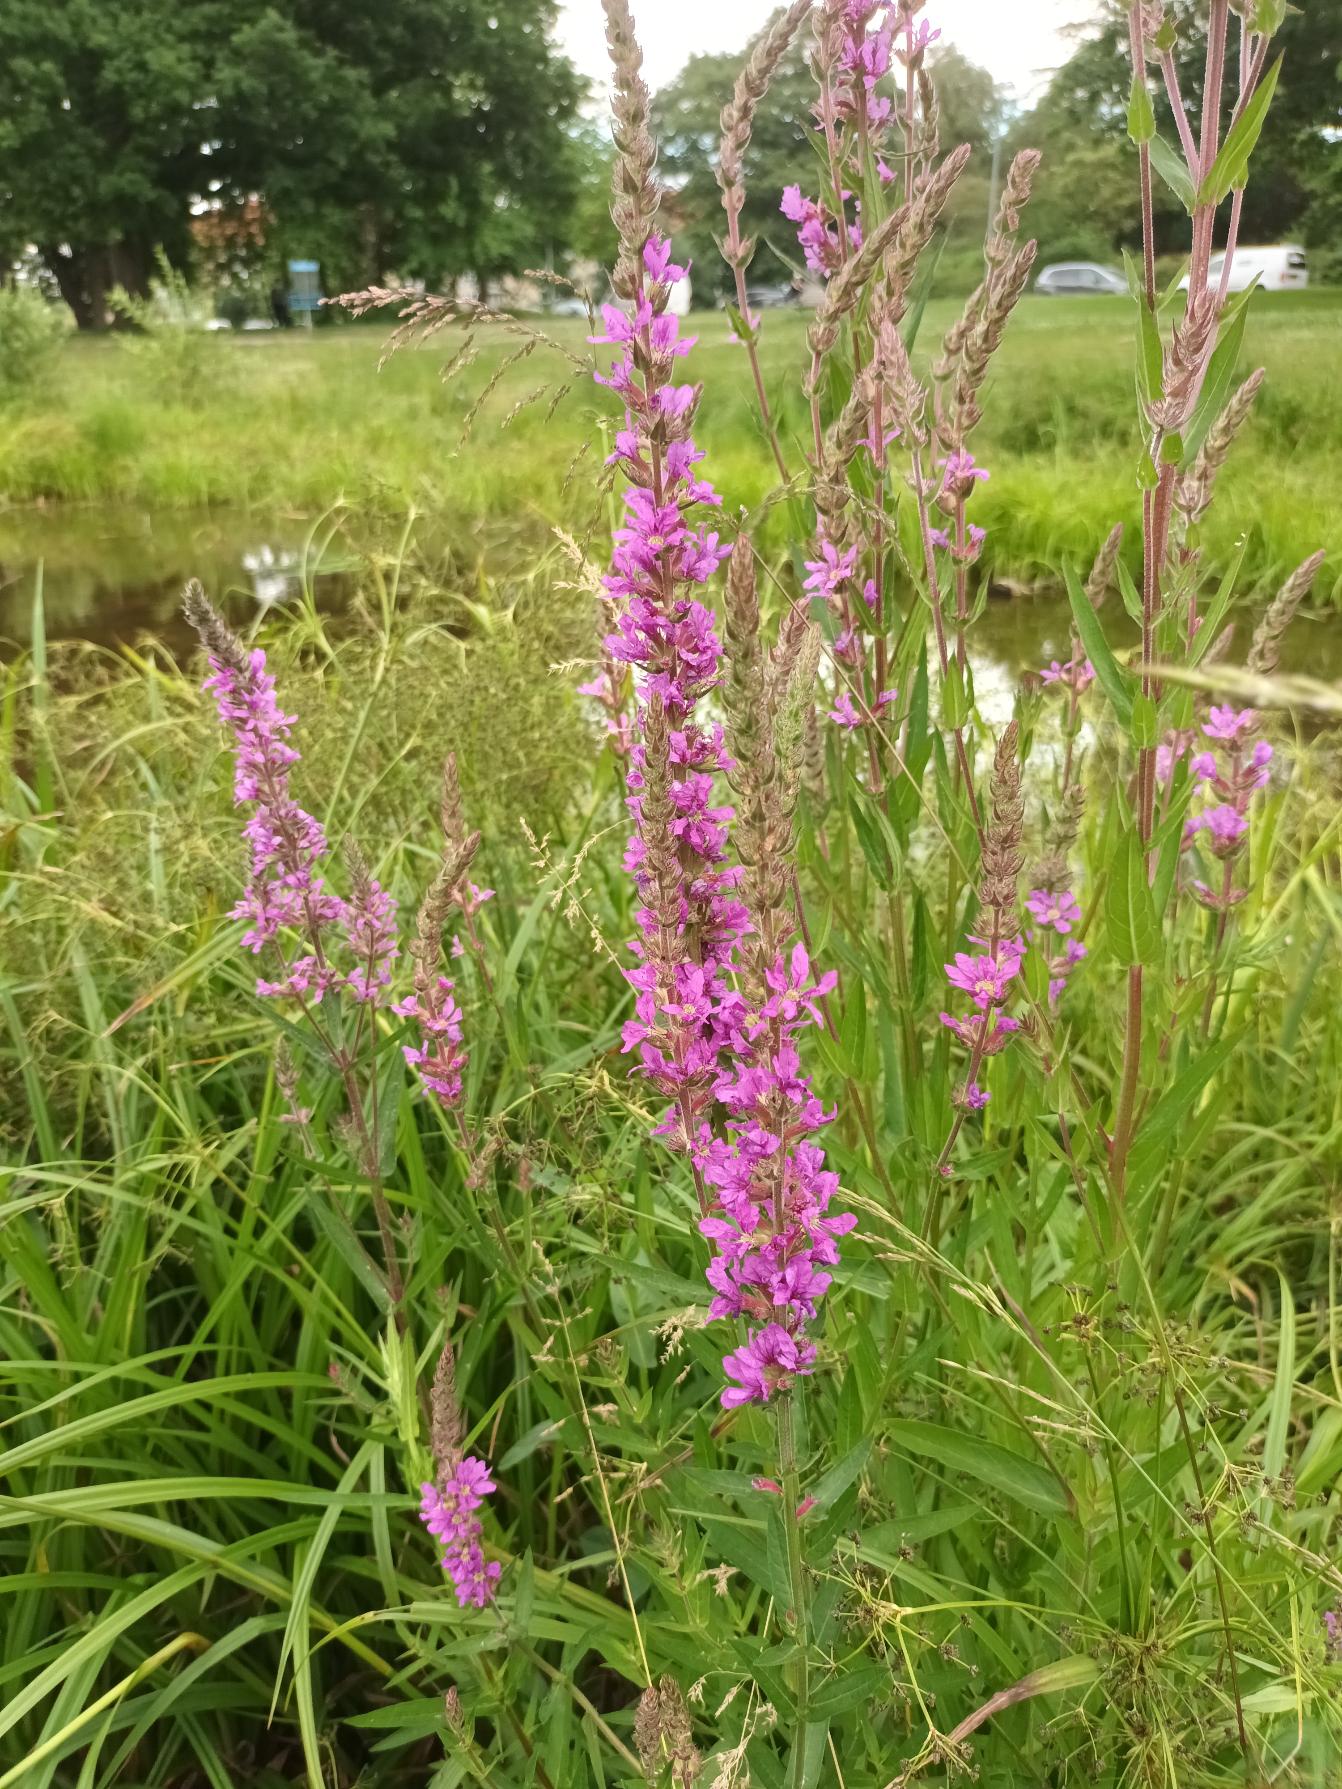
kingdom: Plantae
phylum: Tracheophyta
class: Magnoliopsida
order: Myrtales
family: Lythraceae
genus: Lythrum
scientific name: Lythrum salicaria
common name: Kattehale
